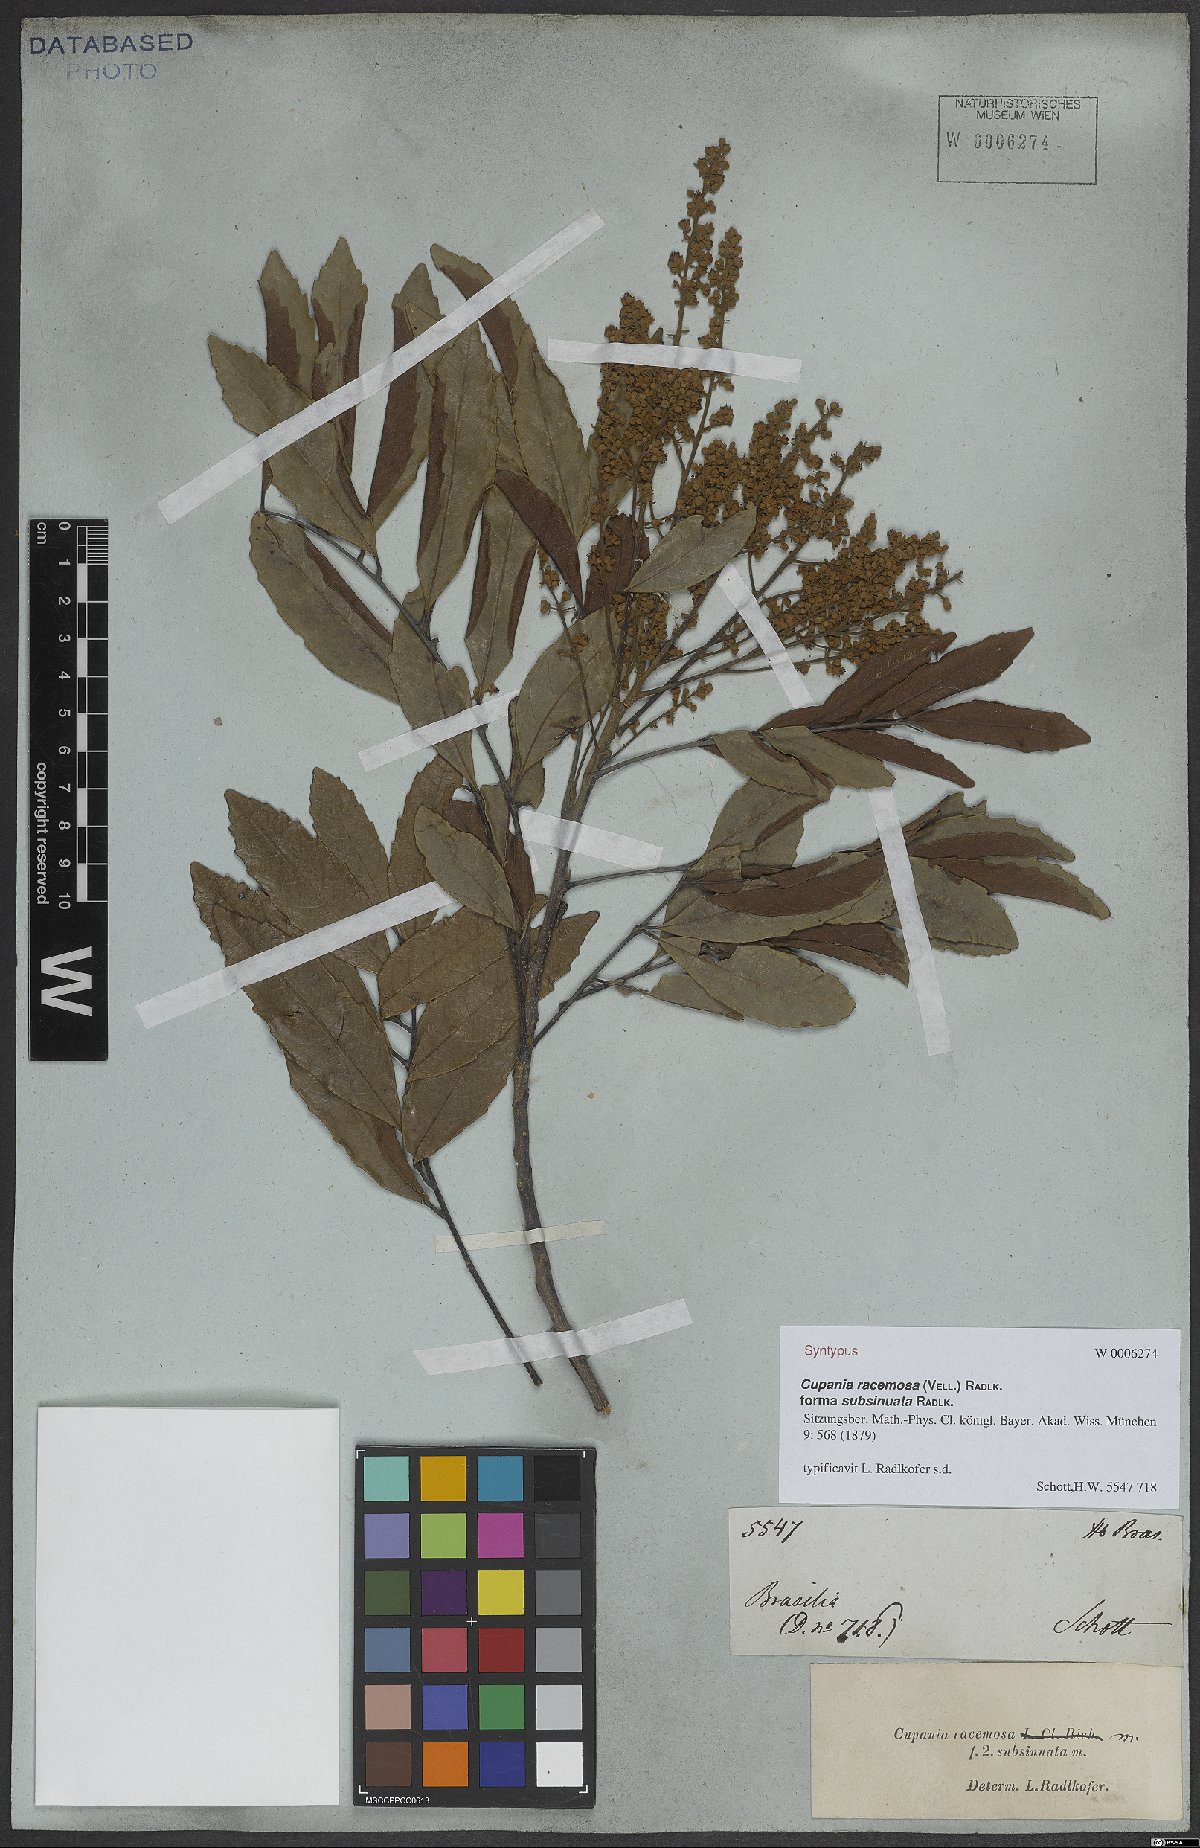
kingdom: Plantae
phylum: Tracheophyta
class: Magnoliopsida
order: Sapindales
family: Sapindaceae
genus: Cupania
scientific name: Cupania racemosa
